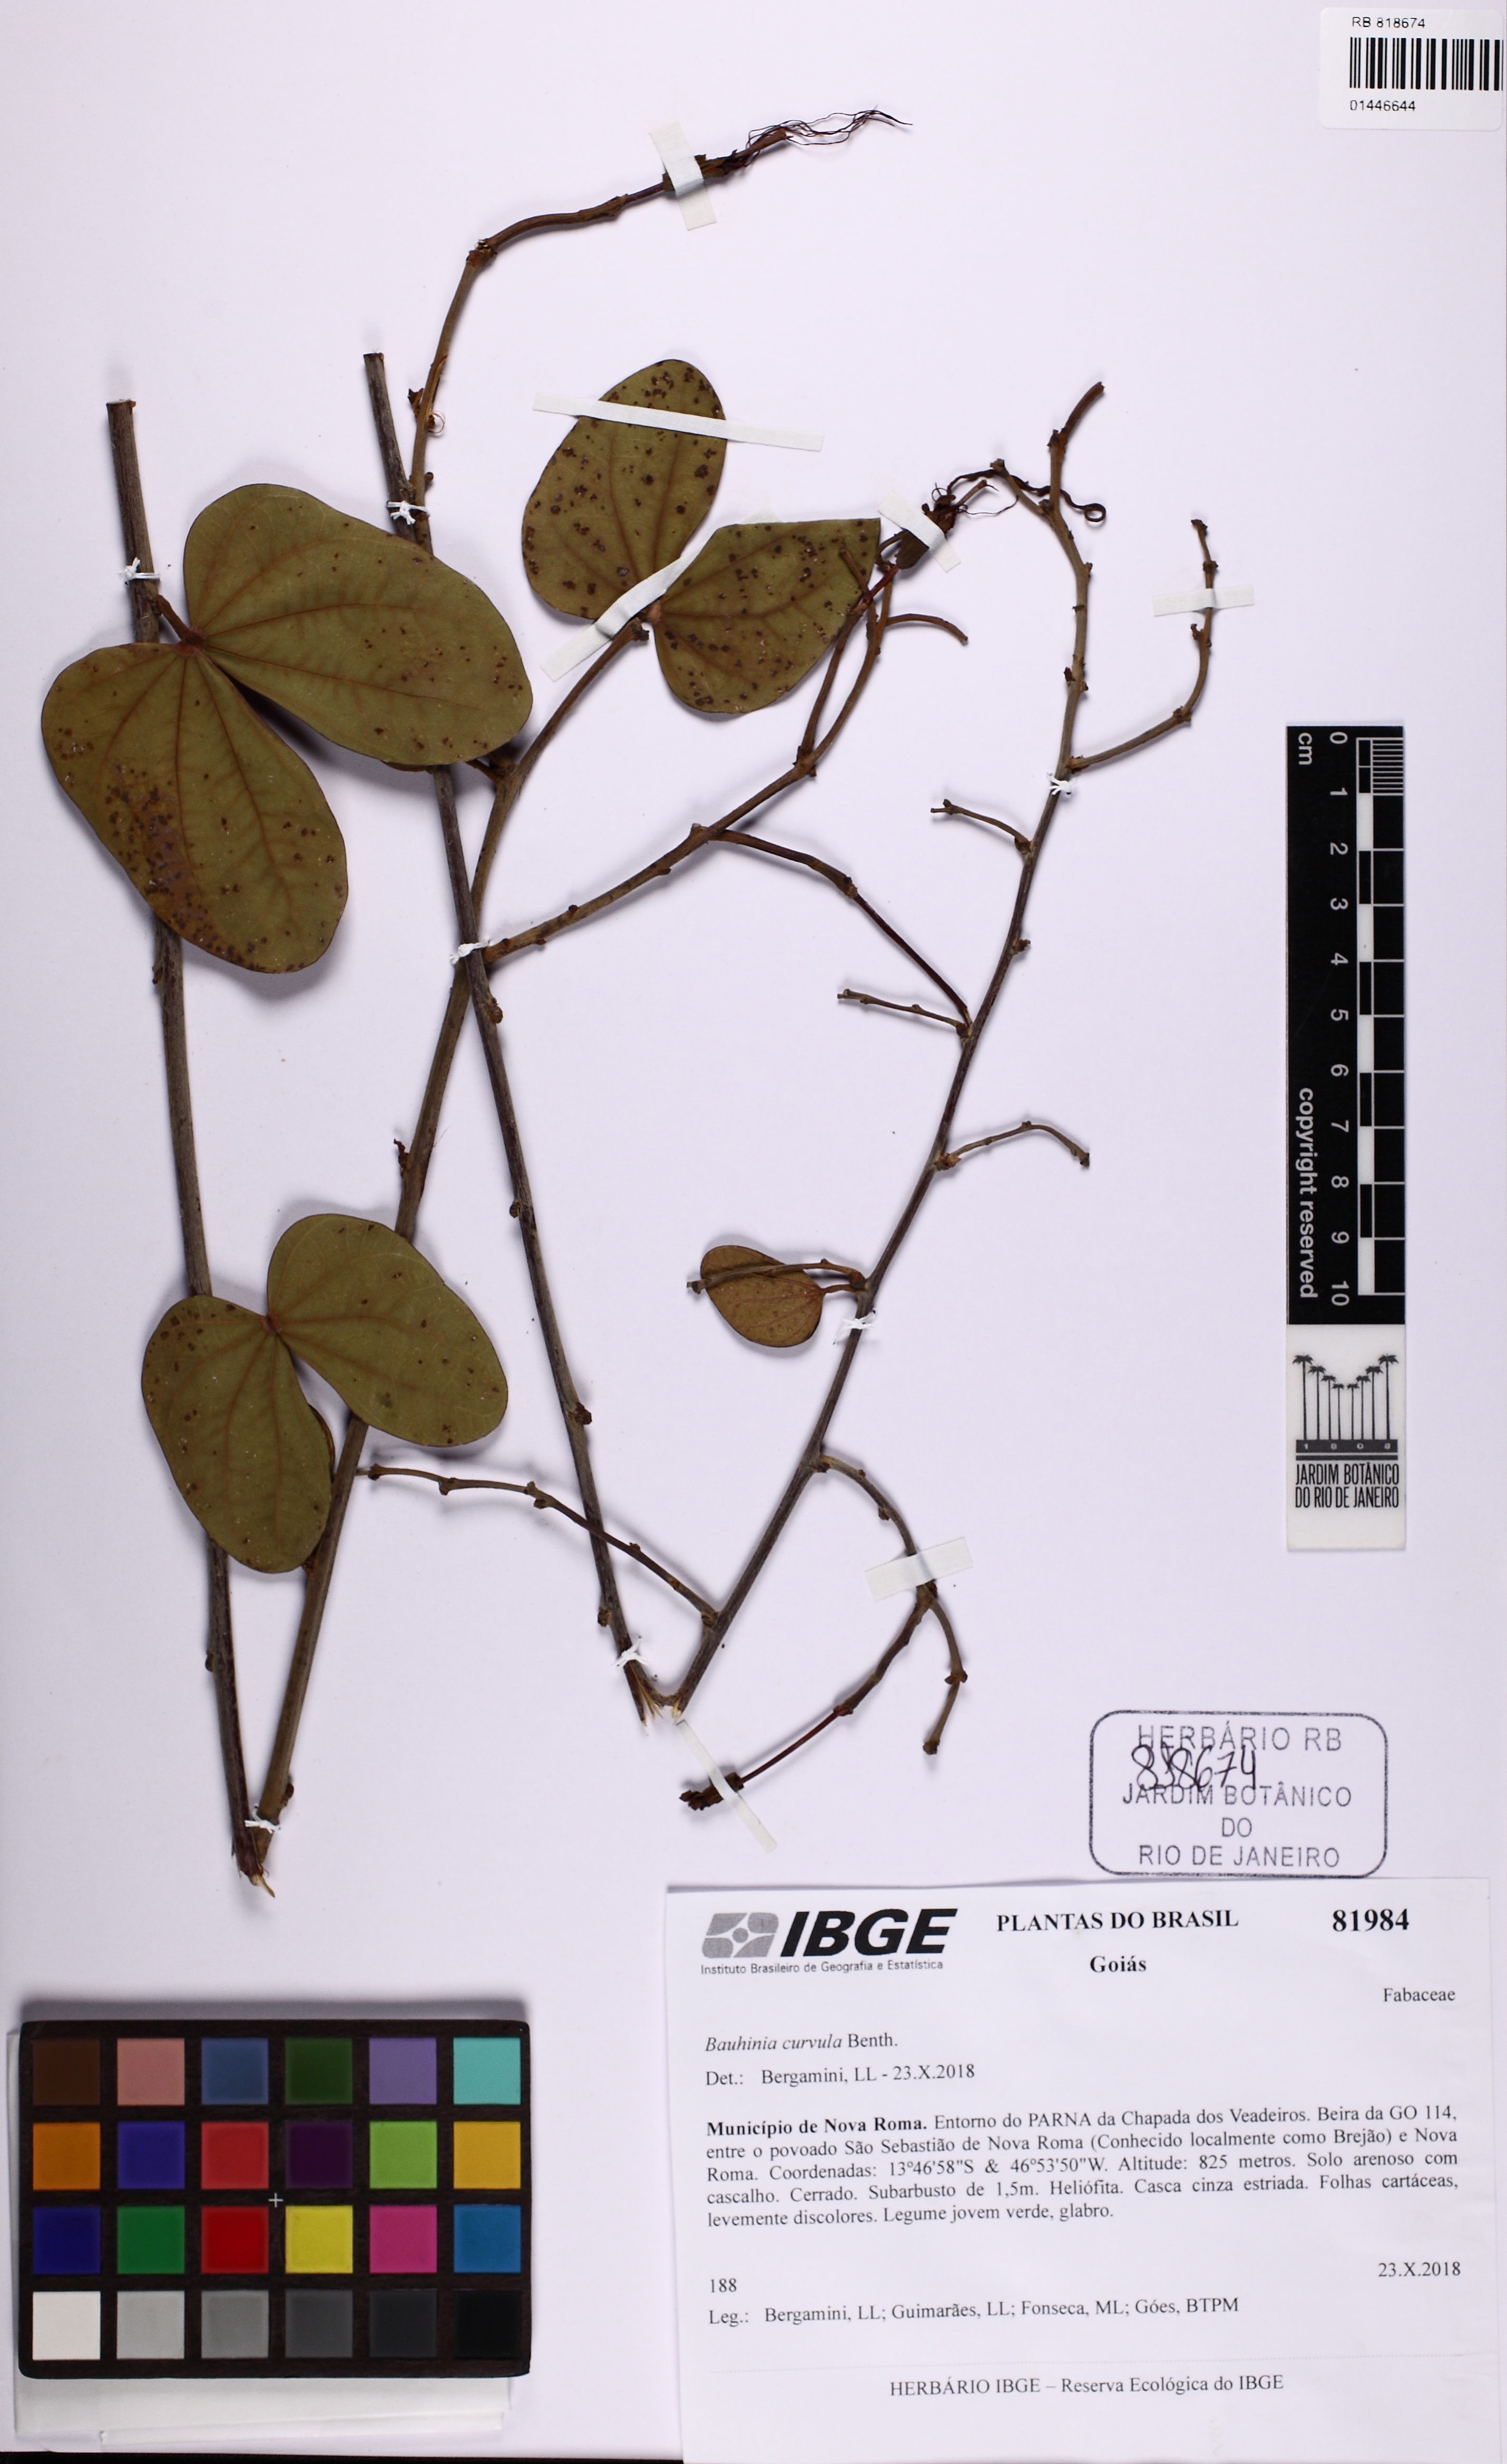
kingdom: Plantae
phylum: Tracheophyta
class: Magnoliopsida
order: Fabales
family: Fabaceae
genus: Bauhinia
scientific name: Bauhinia curvula
